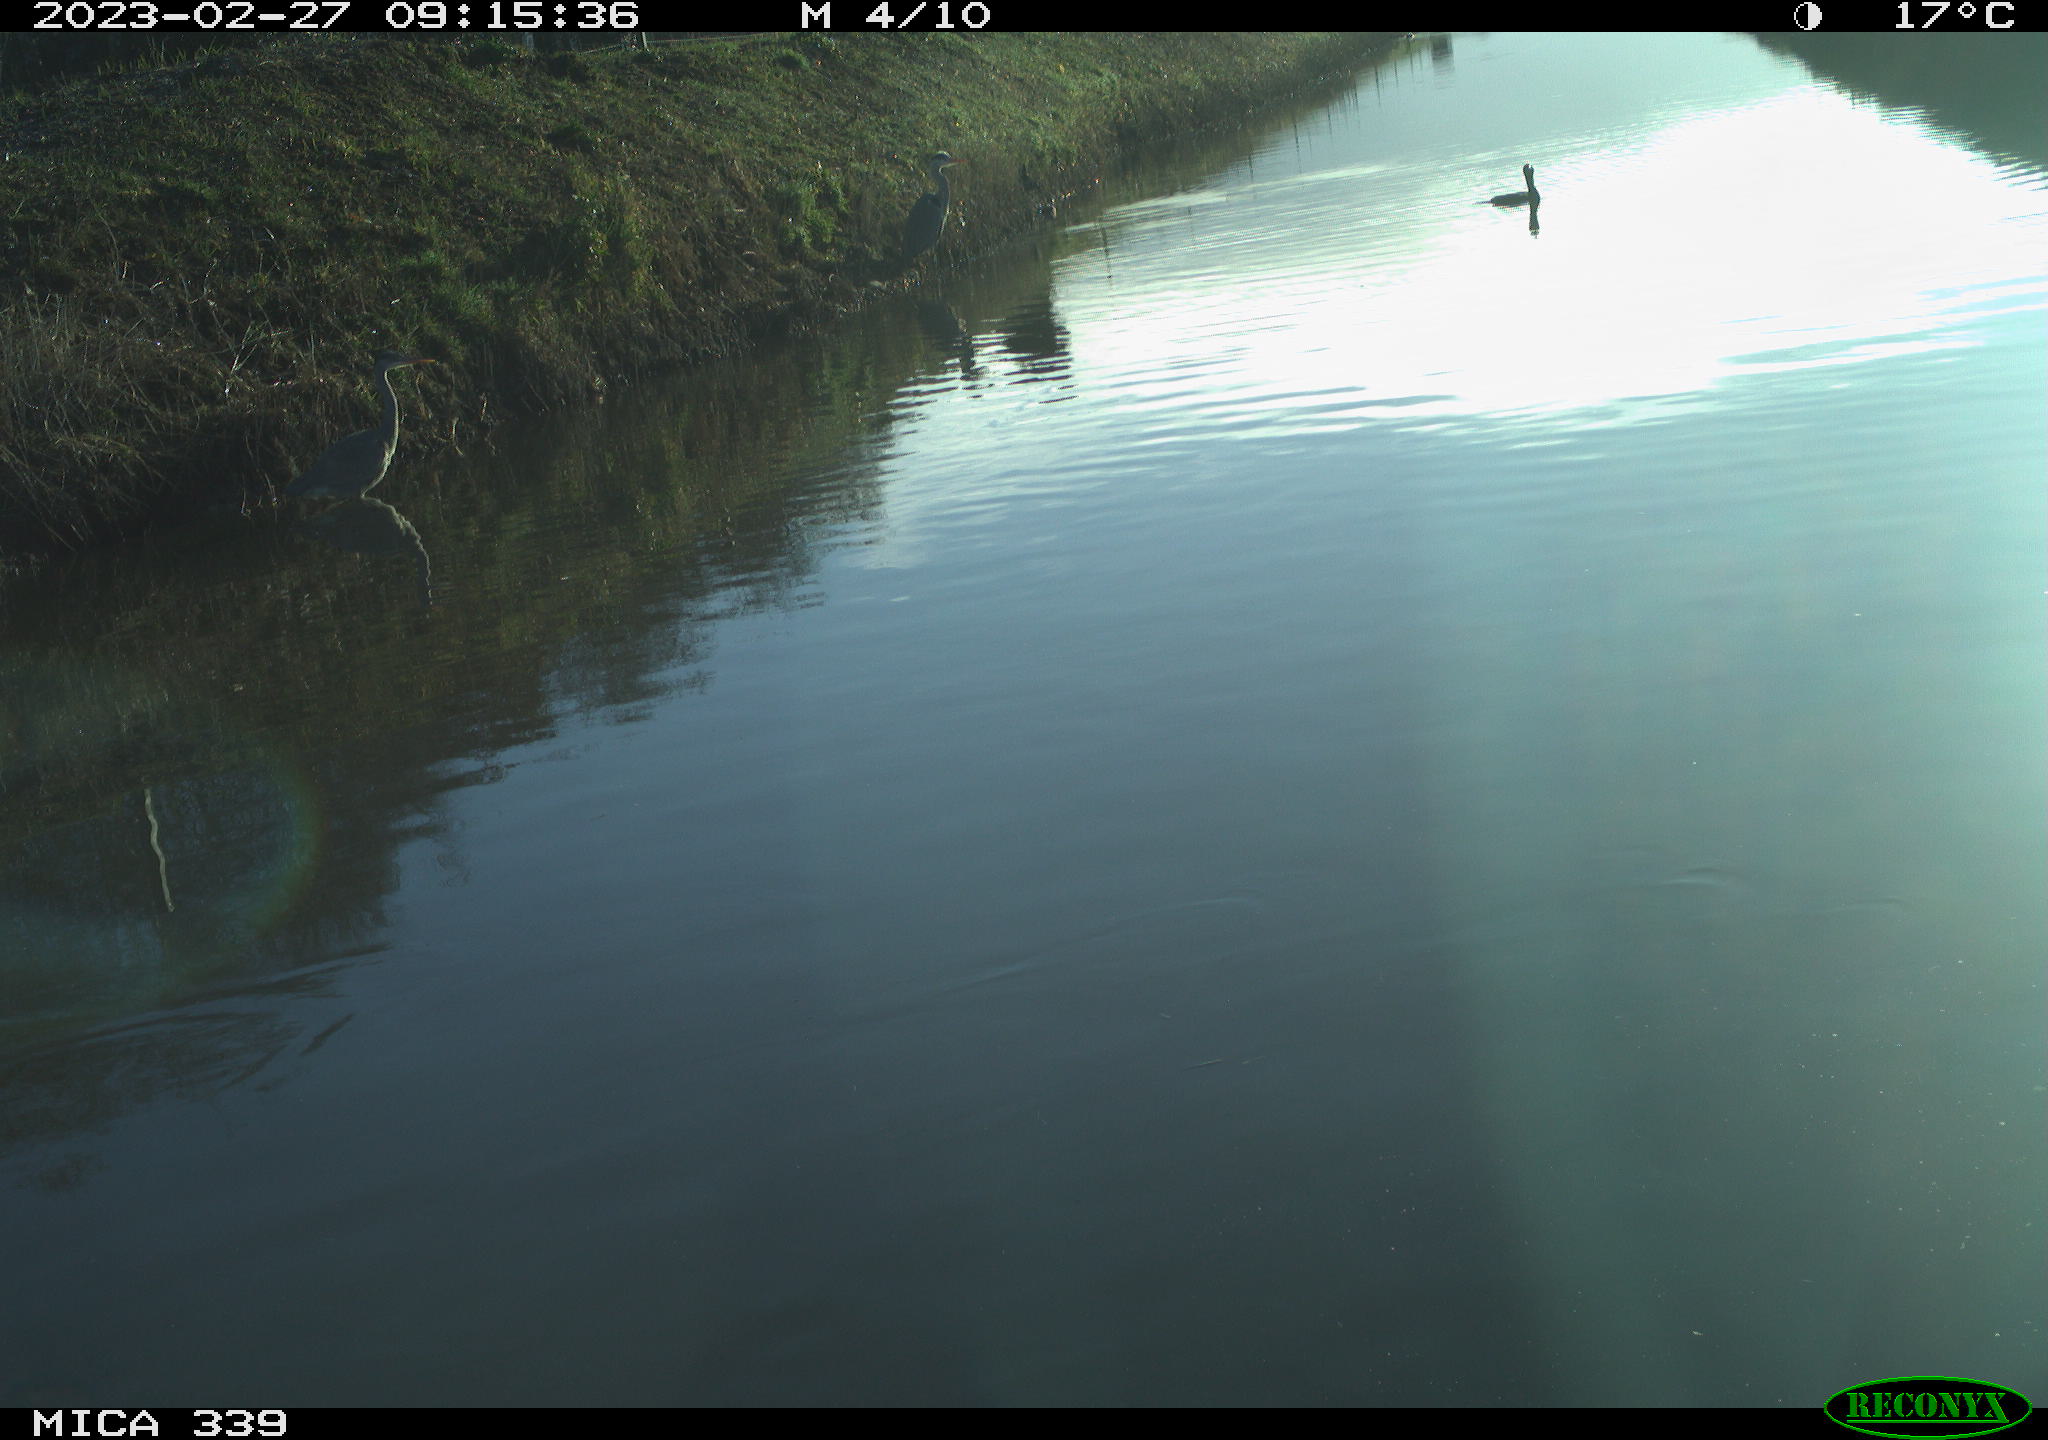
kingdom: Animalia
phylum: Chordata
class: Aves
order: Suliformes
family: Phalacrocoracidae
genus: Phalacrocorax
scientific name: Phalacrocorax carbo
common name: Great cormorant
